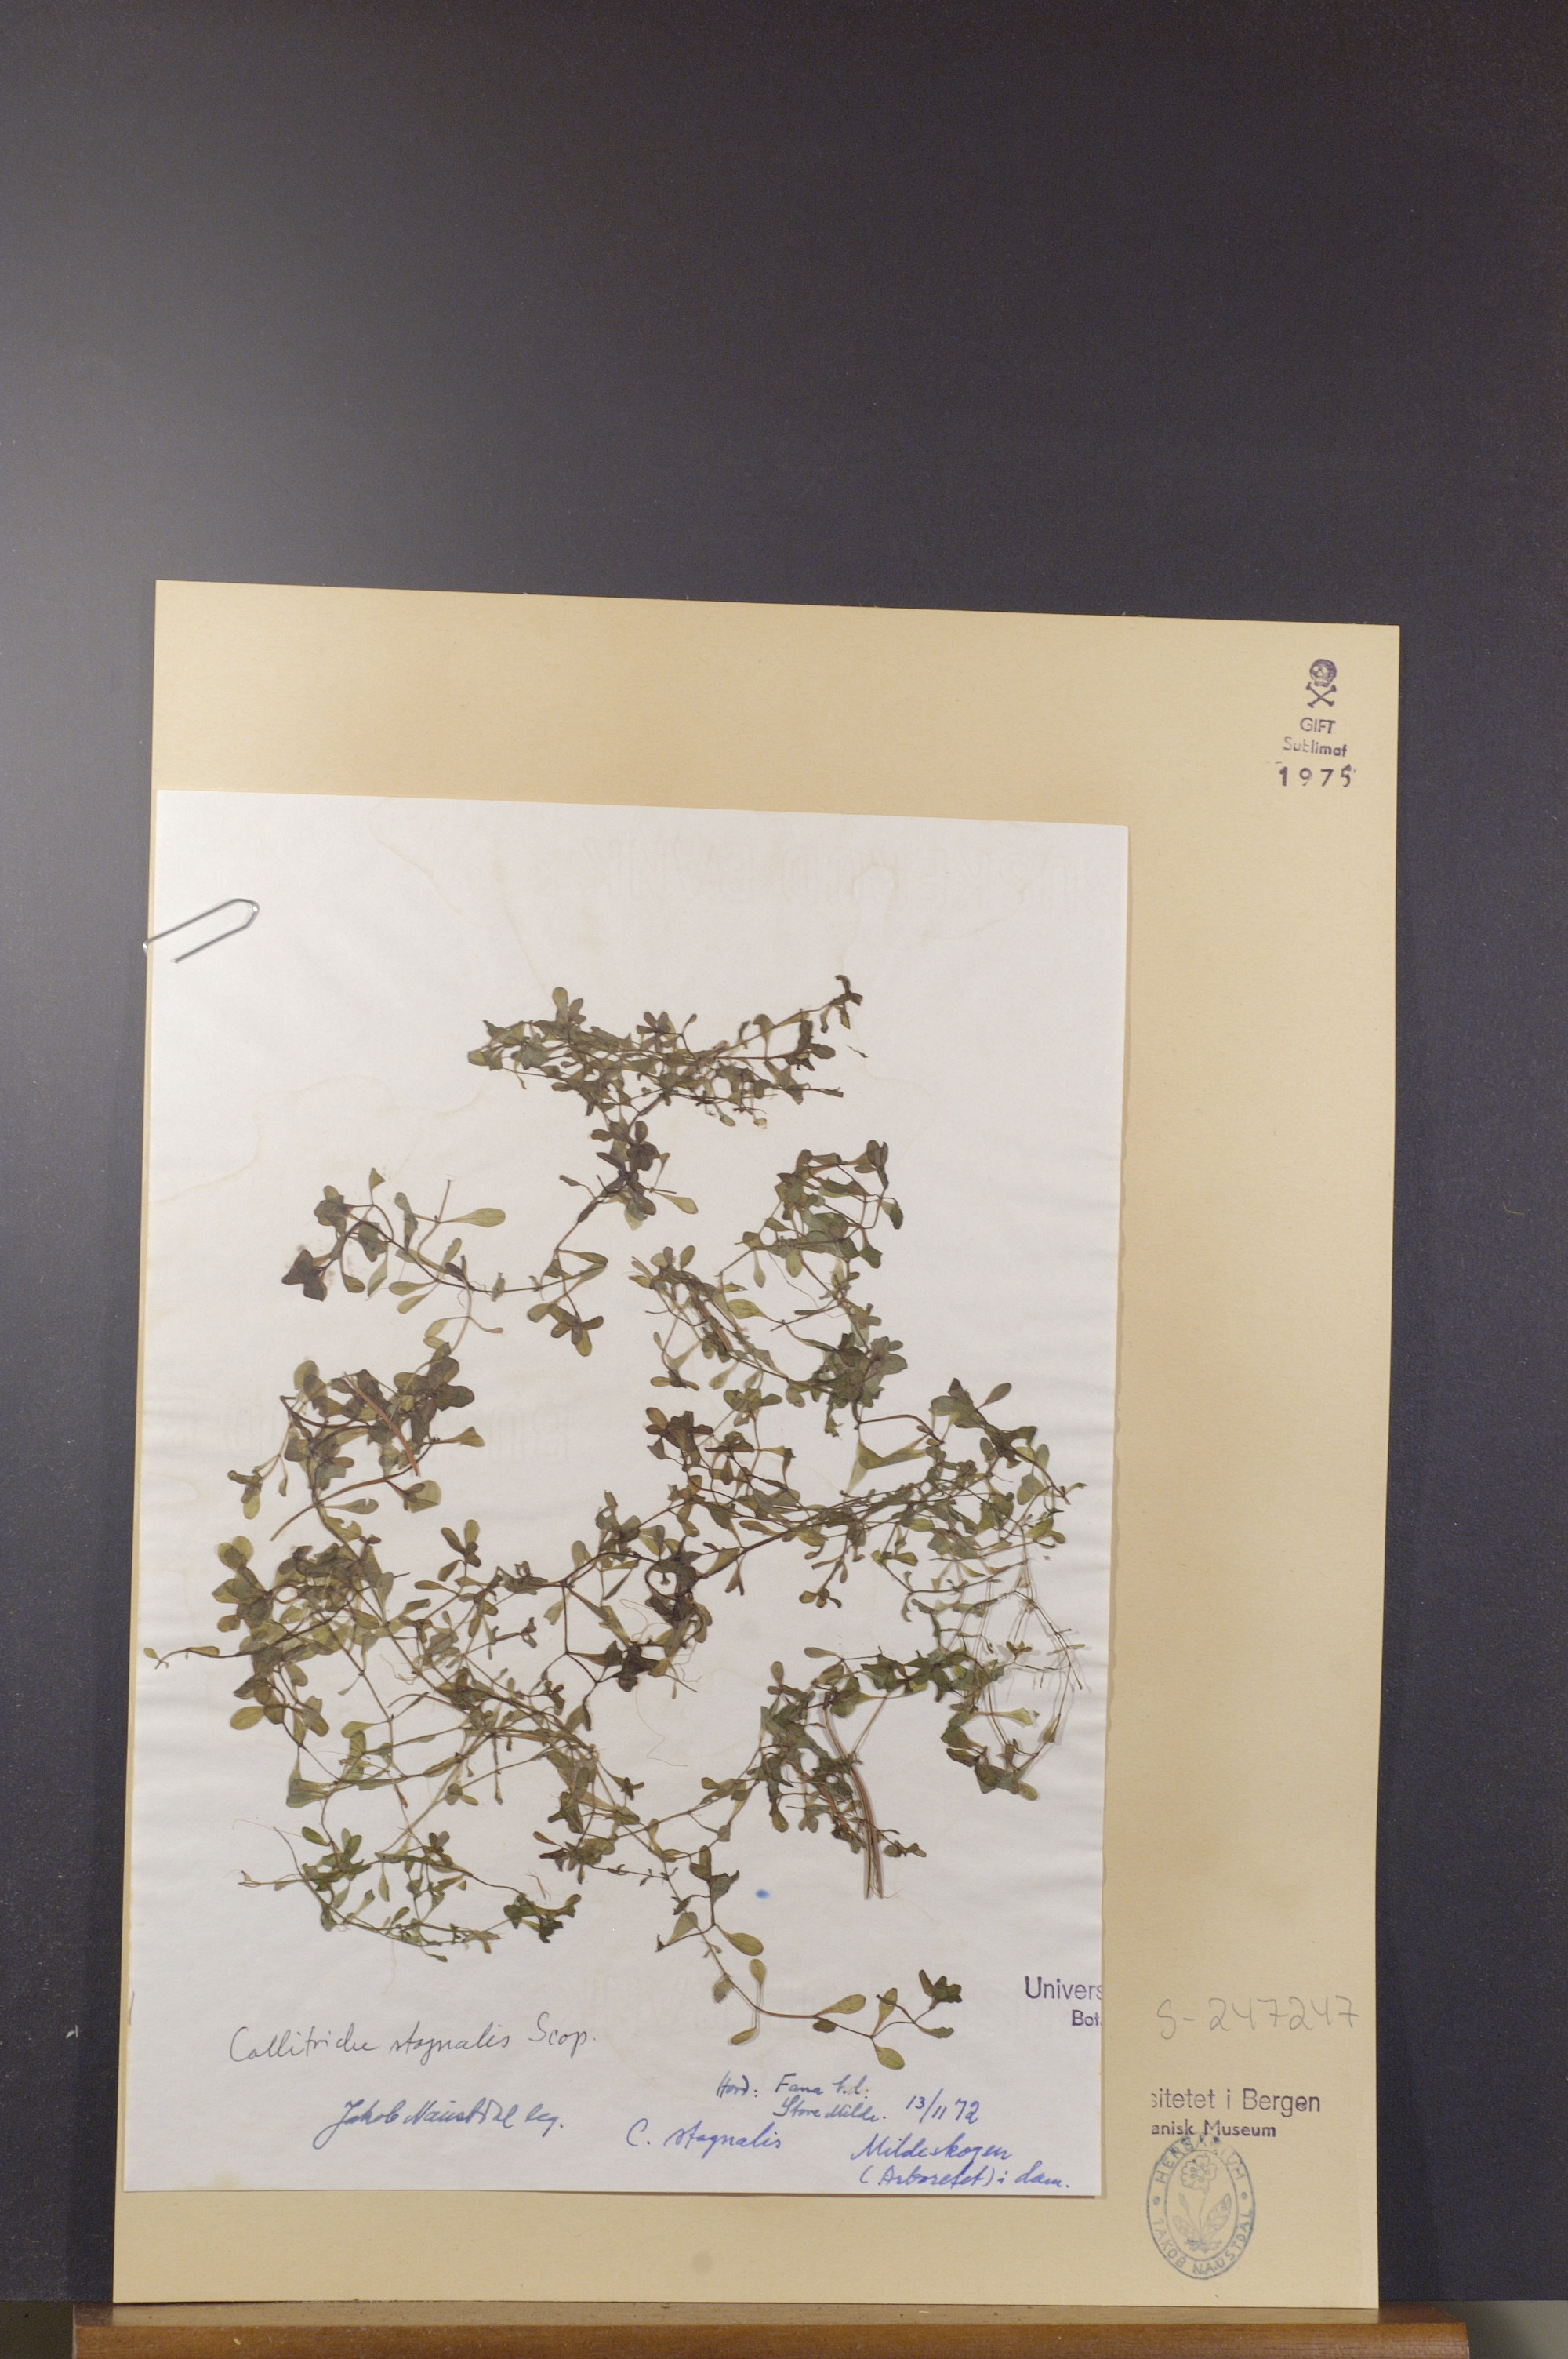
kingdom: Plantae
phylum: Tracheophyta
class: Magnoliopsida
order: Lamiales
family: Plantaginaceae
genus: Callitriche
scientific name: Callitriche stagnalis
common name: Common water-starwort
